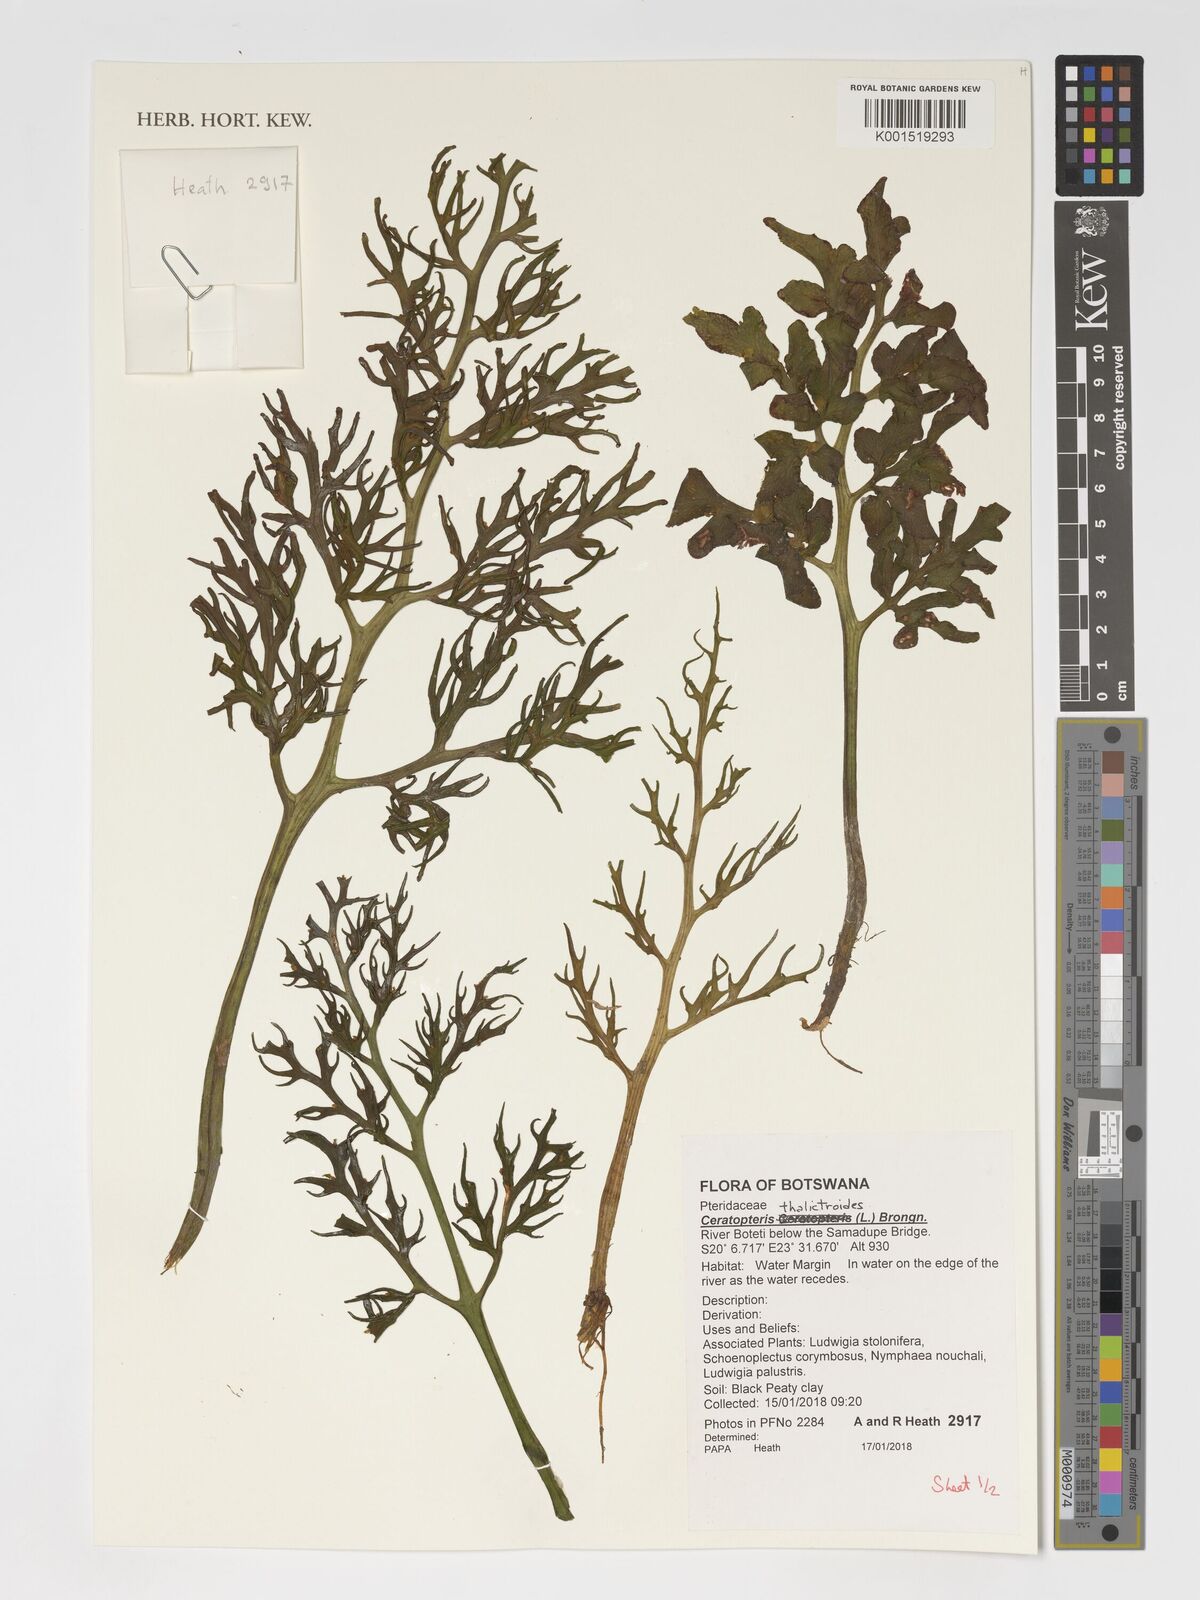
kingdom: Plantae
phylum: Tracheophyta
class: Polypodiopsida
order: Polypodiales
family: Pteridaceae
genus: Ceratopteris
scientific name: Ceratopteris thalictroides
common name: Water fern
